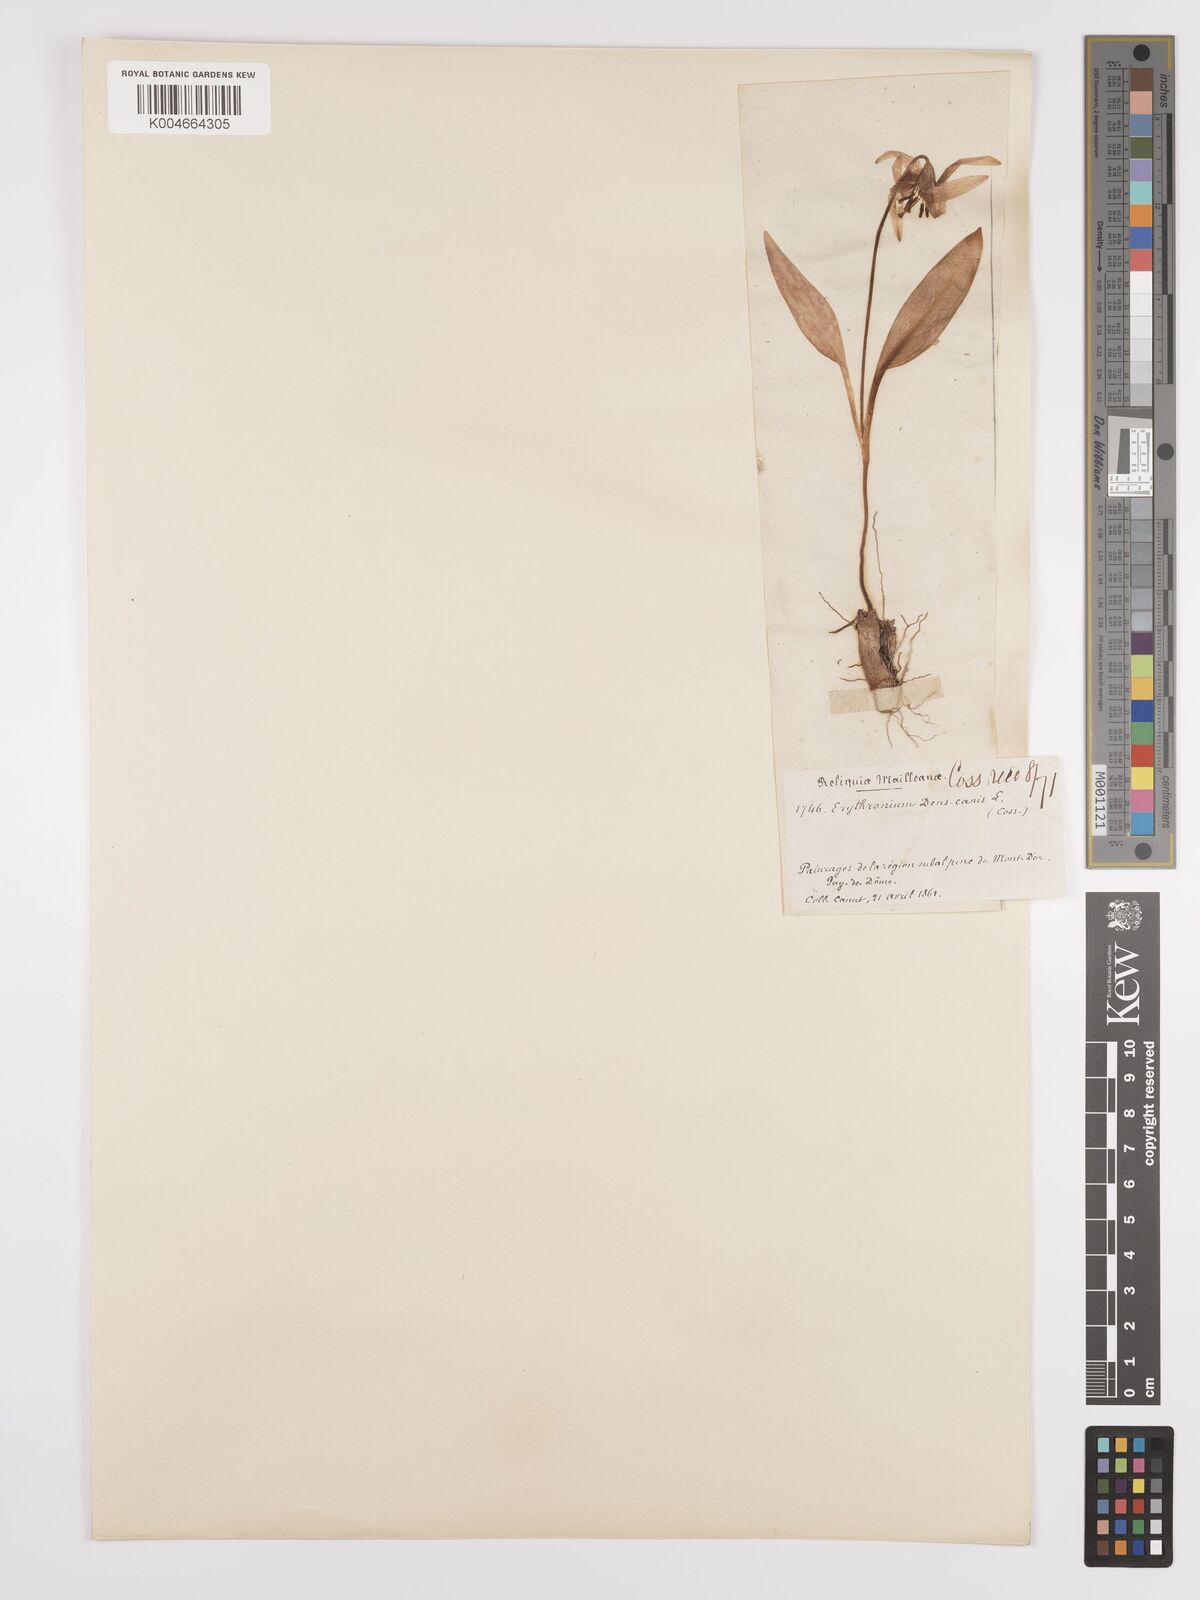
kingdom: Plantae
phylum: Tracheophyta
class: Liliopsida
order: Liliales
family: Liliaceae
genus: Erythronium
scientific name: Erythronium dens-canis
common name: Dog's-tooth-violet
